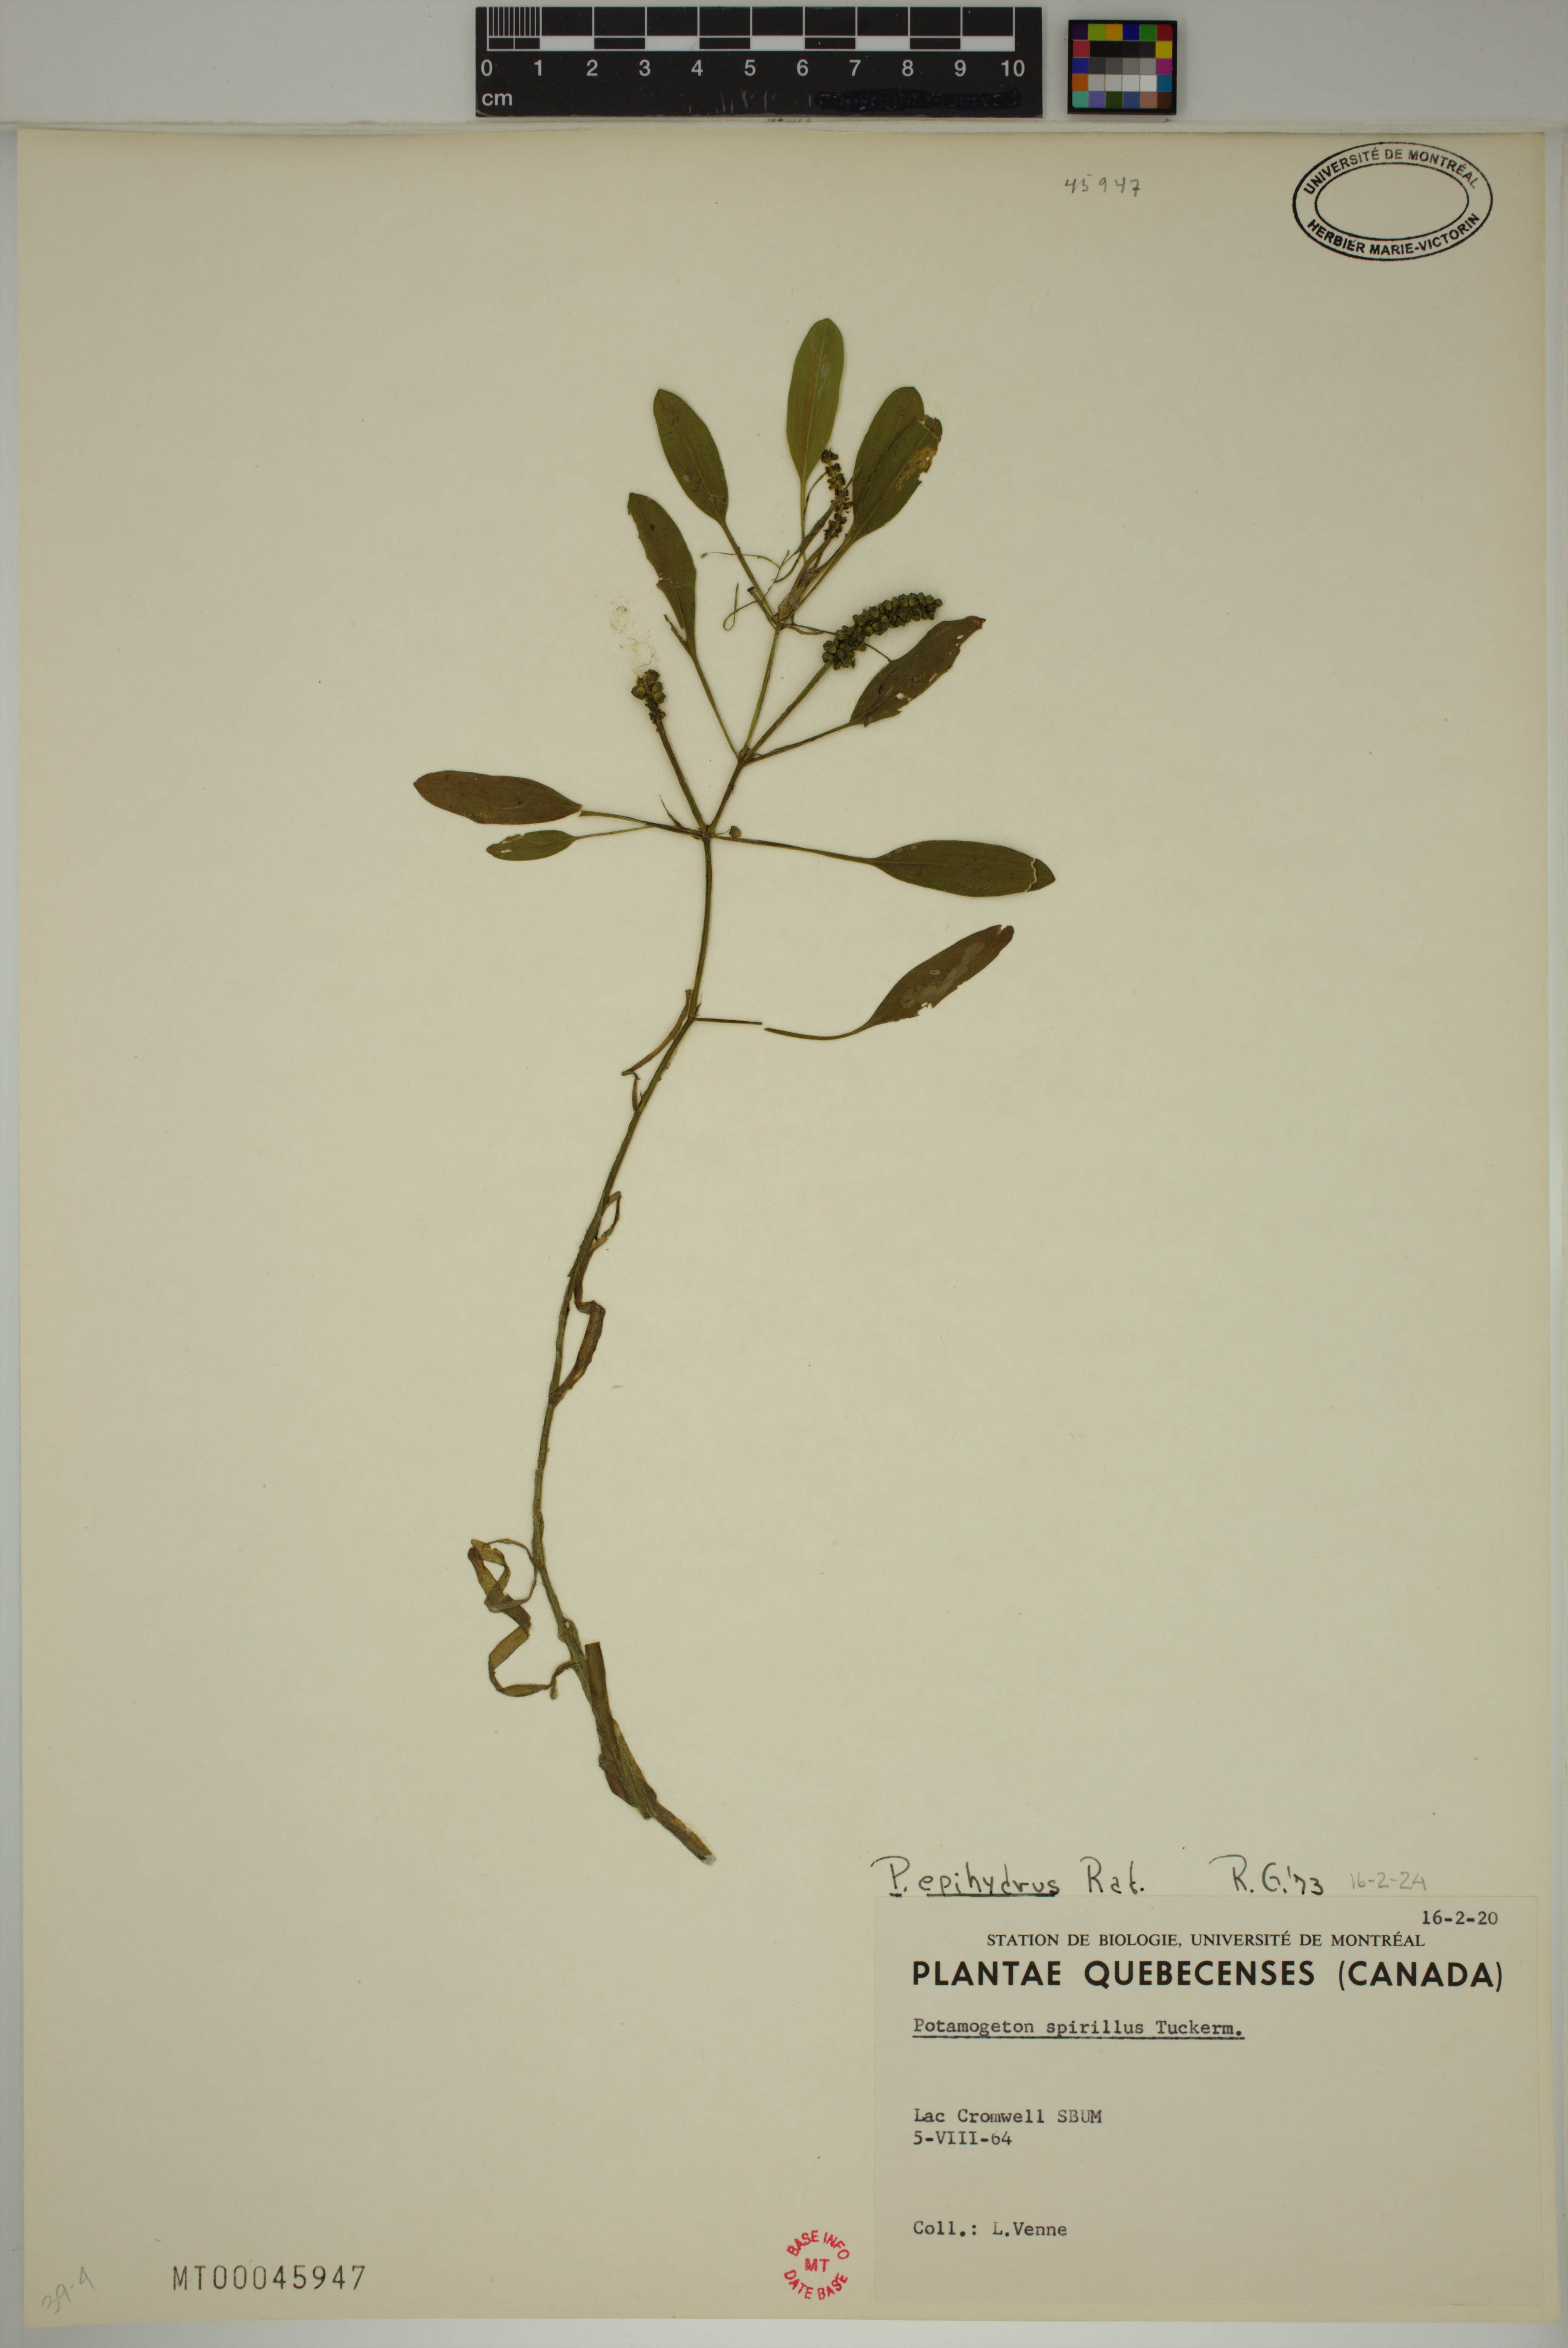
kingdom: Plantae
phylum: Tracheophyta
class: Liliopsida
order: Alismatales
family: Potamogetonaceae
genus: Potamogeton
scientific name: Potamogeton epihydrus
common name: American pondweed
